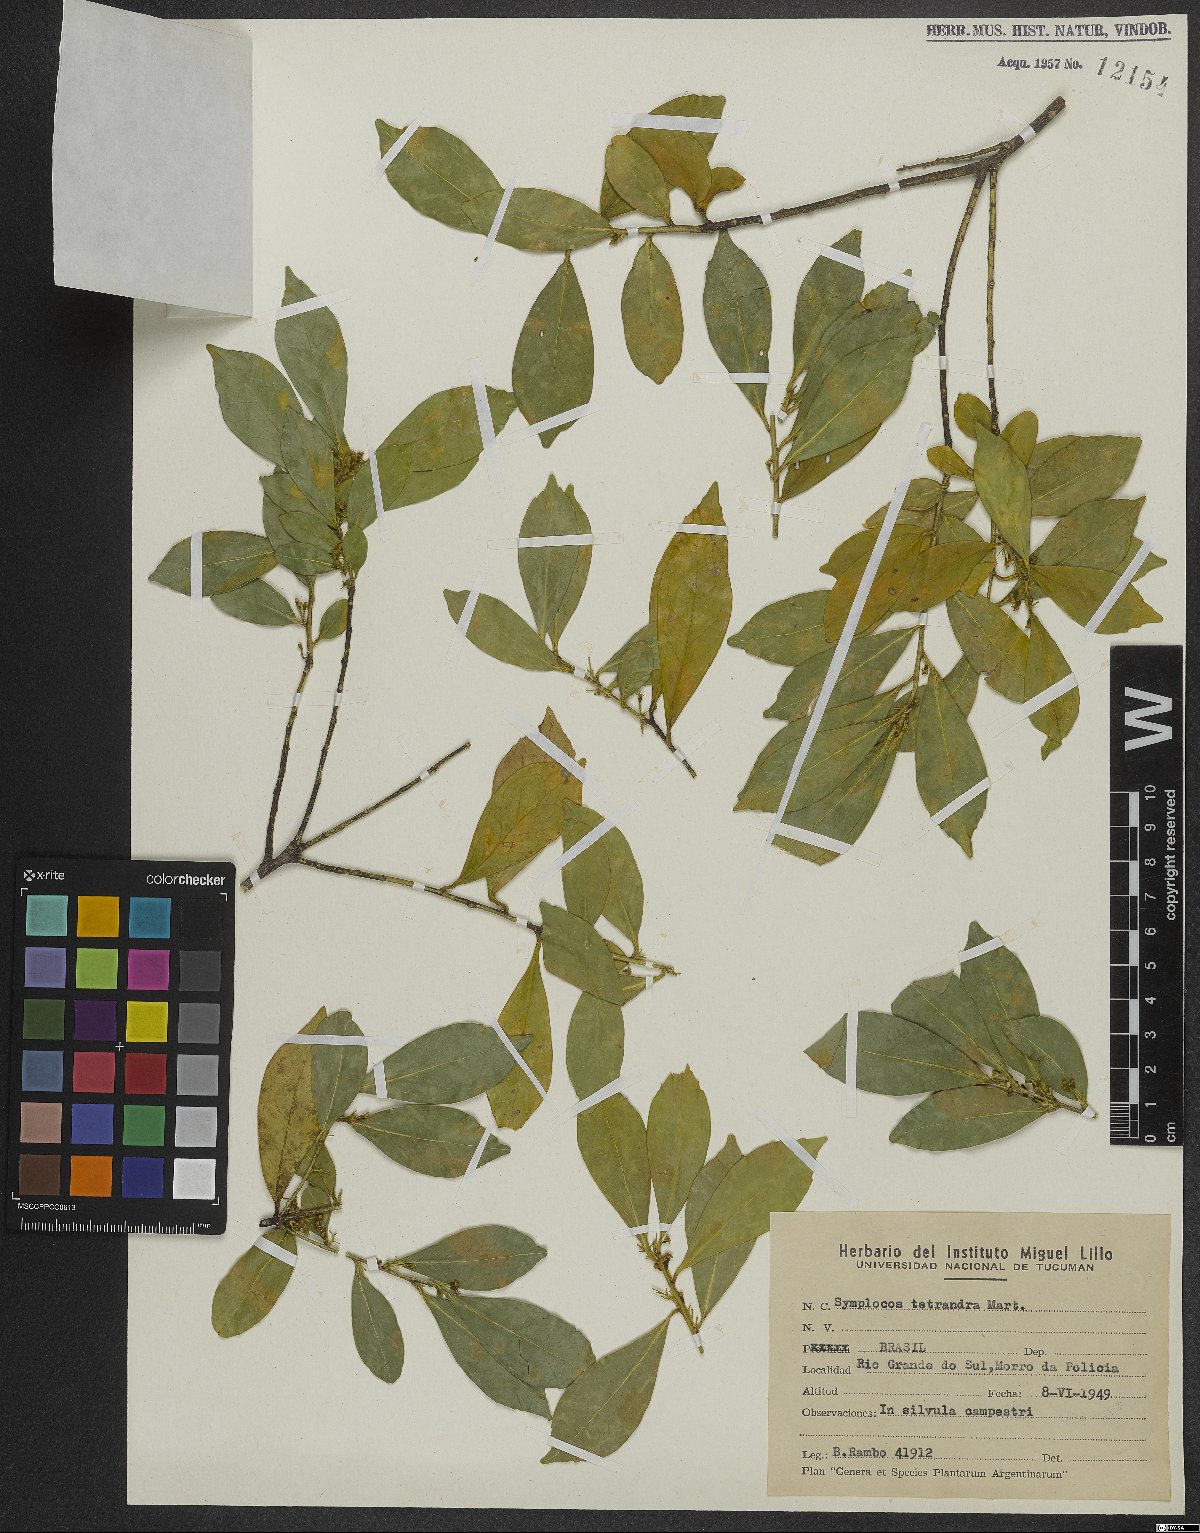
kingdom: Plantae
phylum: Tracheophyta
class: Magnoliopsida
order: Ericales
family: Symplocaceae
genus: Symplocos
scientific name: Symplocos tetrandra
